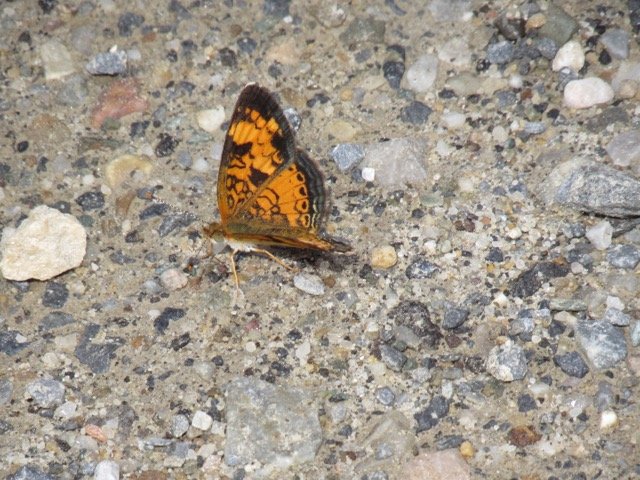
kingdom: Animalia
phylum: Arthropoda
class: Insecta
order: Lepidoptera
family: Nymphalidae
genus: Phyciodes
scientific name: Phyciodes tharos
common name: Pearl Crescent
